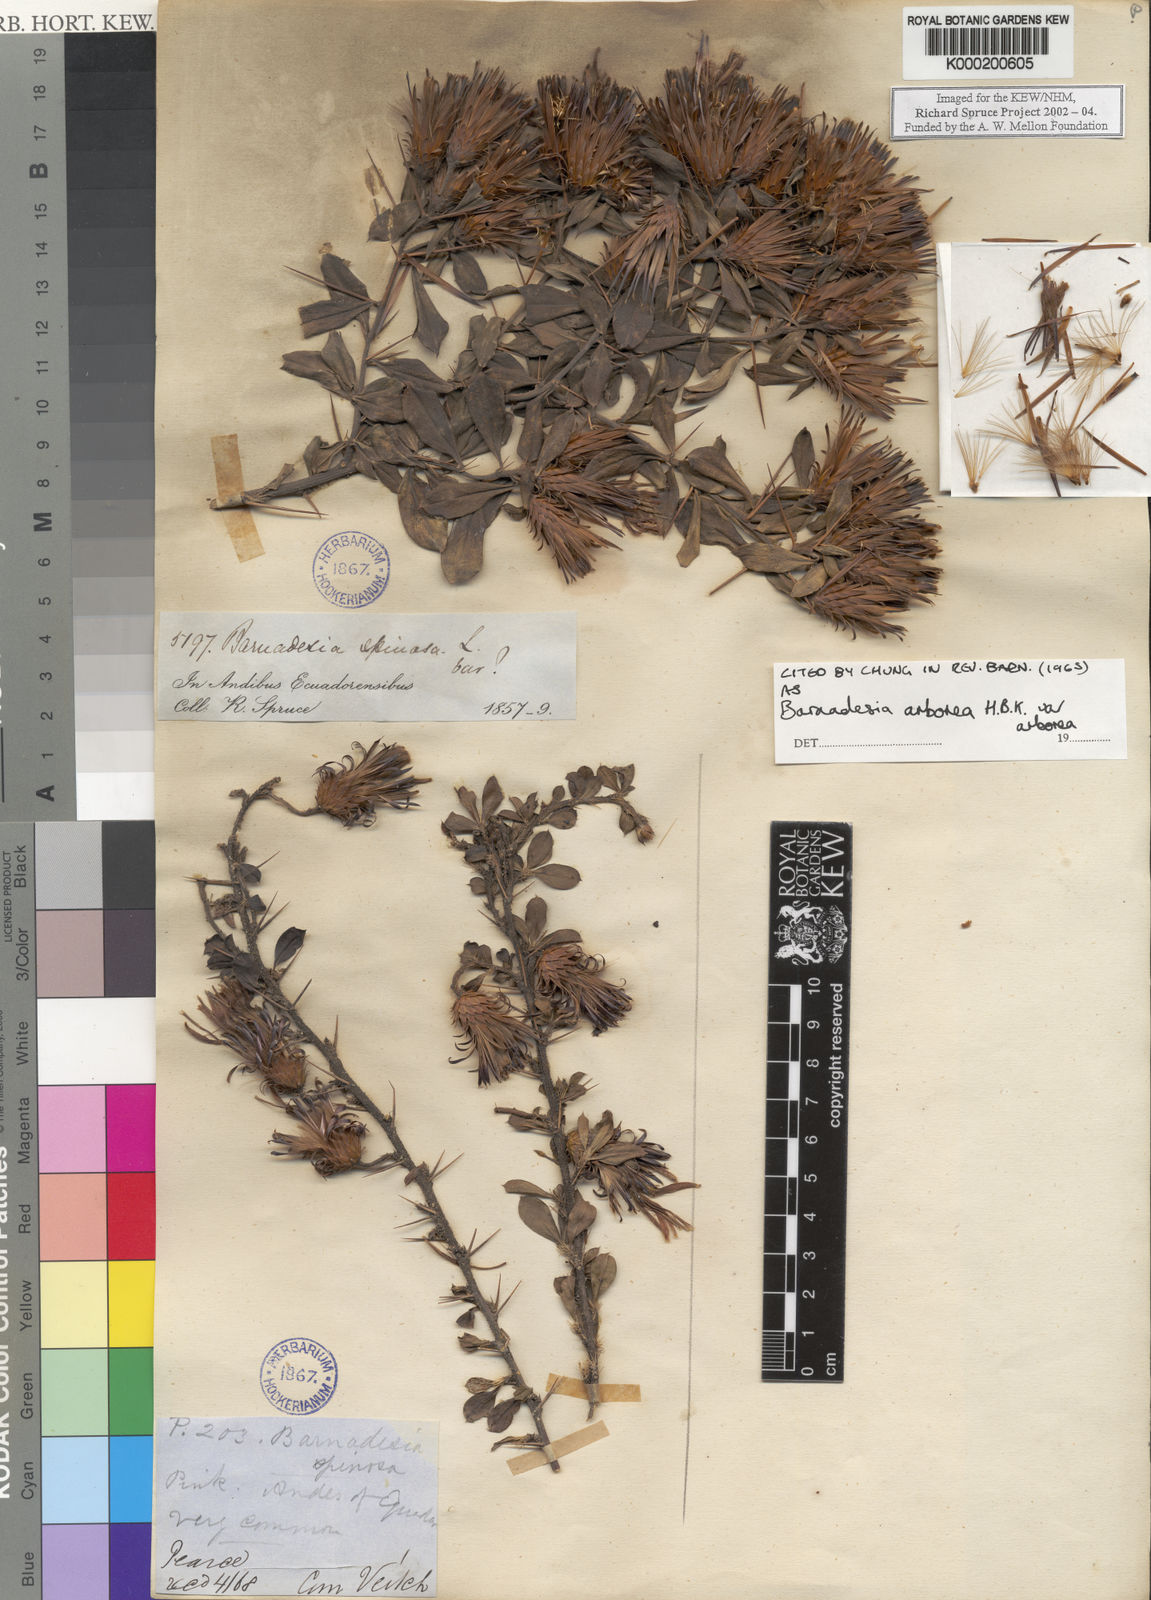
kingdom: Plantae
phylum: Tracheophyta
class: Magnoliopsida
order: Asterales
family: Asteraceae
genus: Barnadesia
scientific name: Barnadesia
